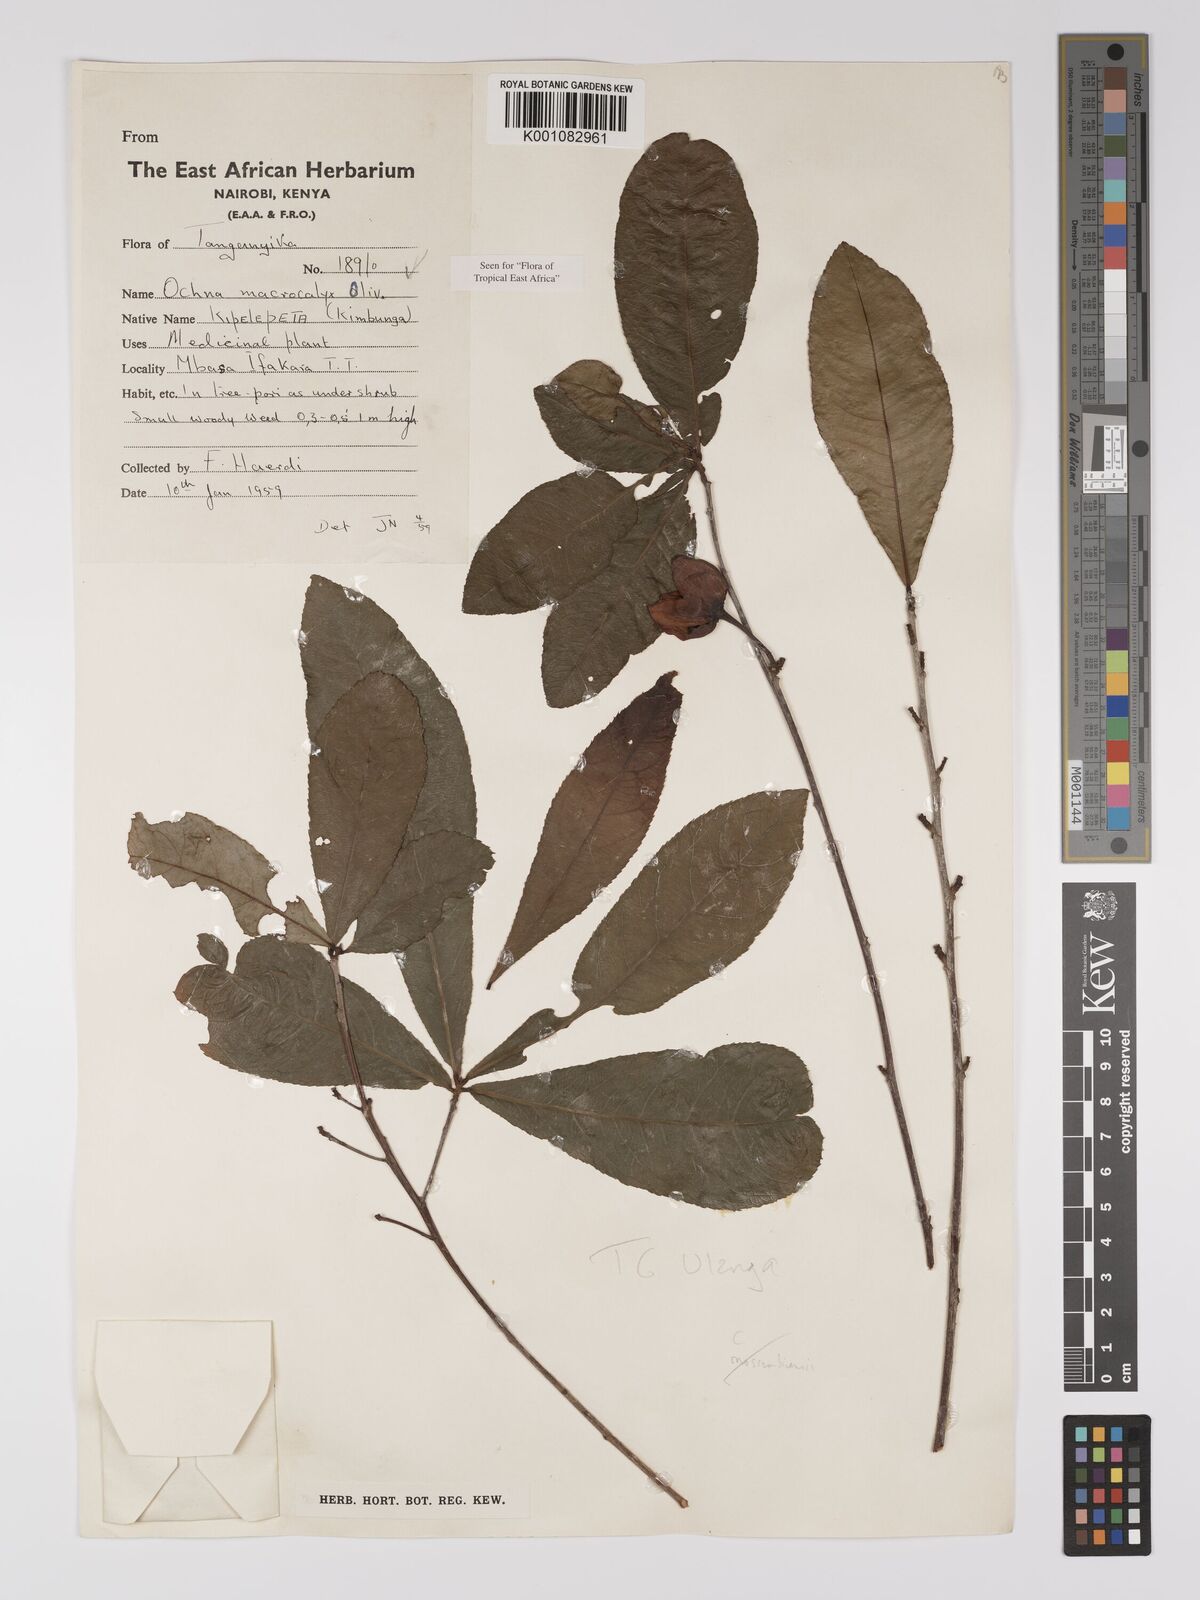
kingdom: Plantae
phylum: Tracheophyta
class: Magnoliopsida
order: Malpighiales
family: Ochnaceae
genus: Ochna
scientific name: Ochna macrocalyx
